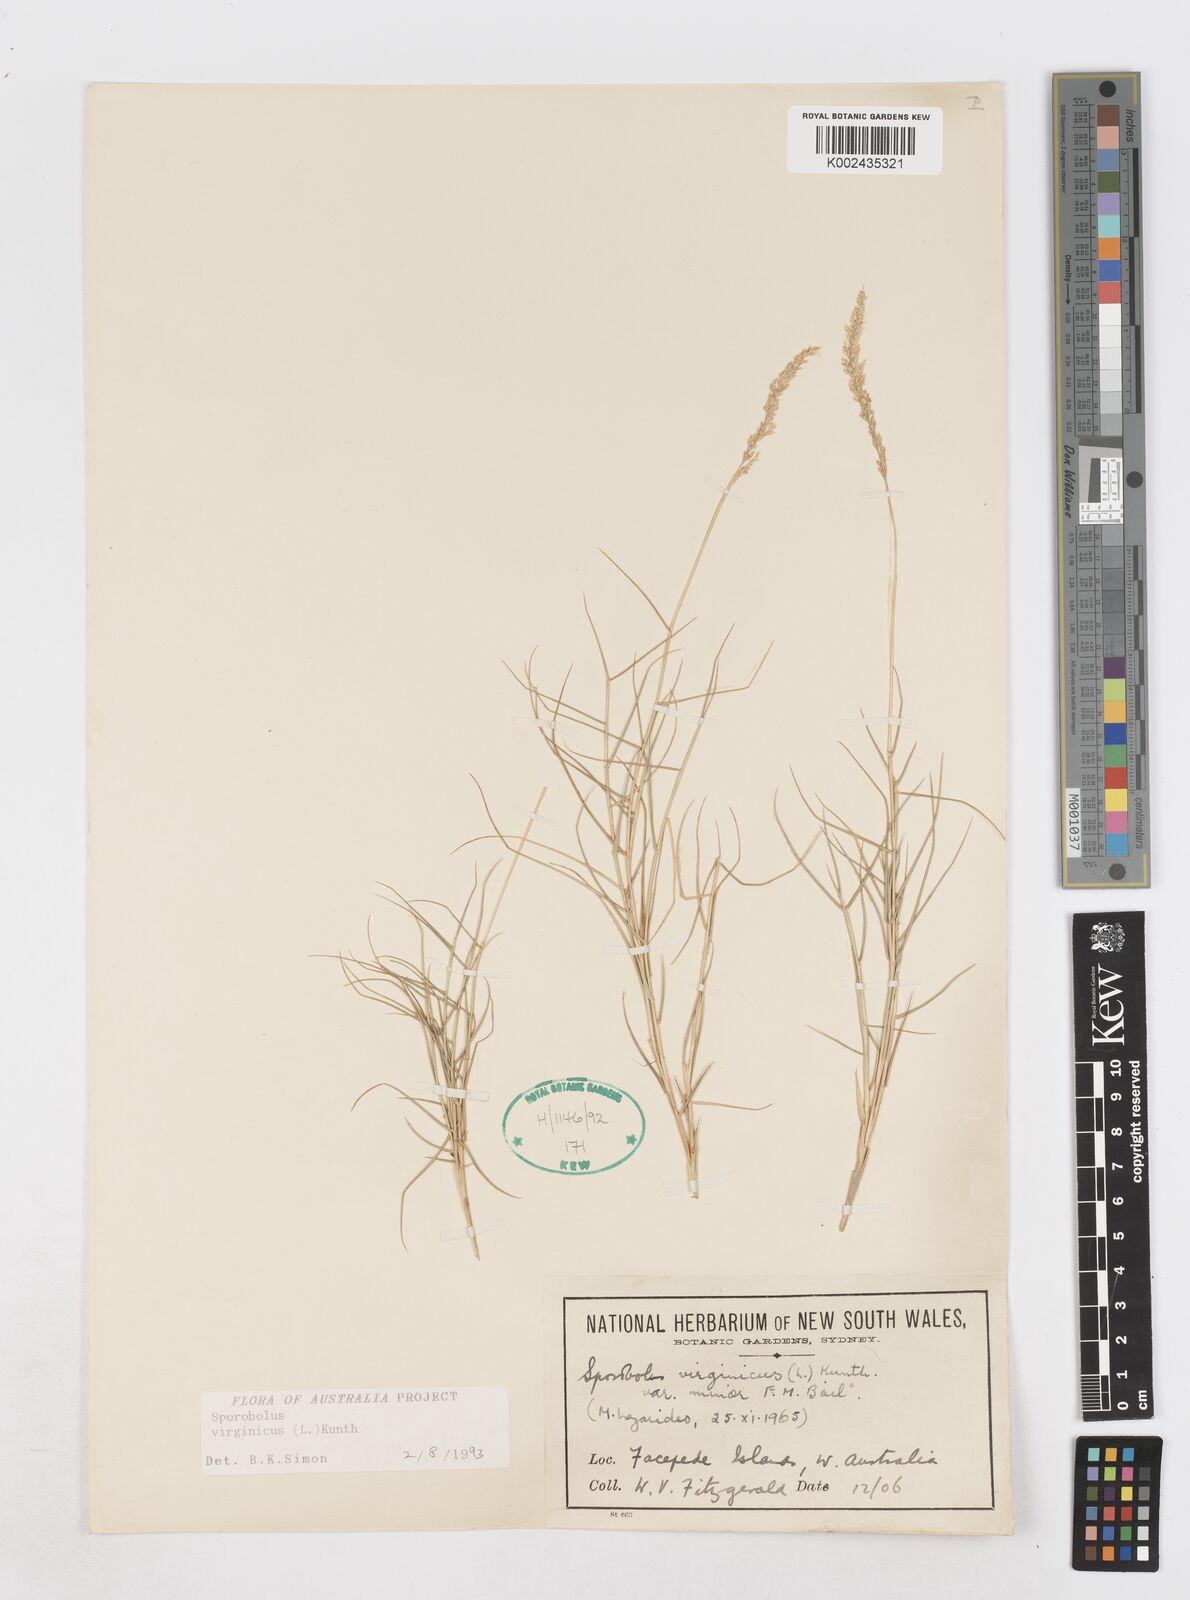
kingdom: Plantae
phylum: Tracheophyta
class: Liliopsida
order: Poales
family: Poaceae
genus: Sporobolus
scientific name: Sporobolus virginicus
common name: Beach dropseed
